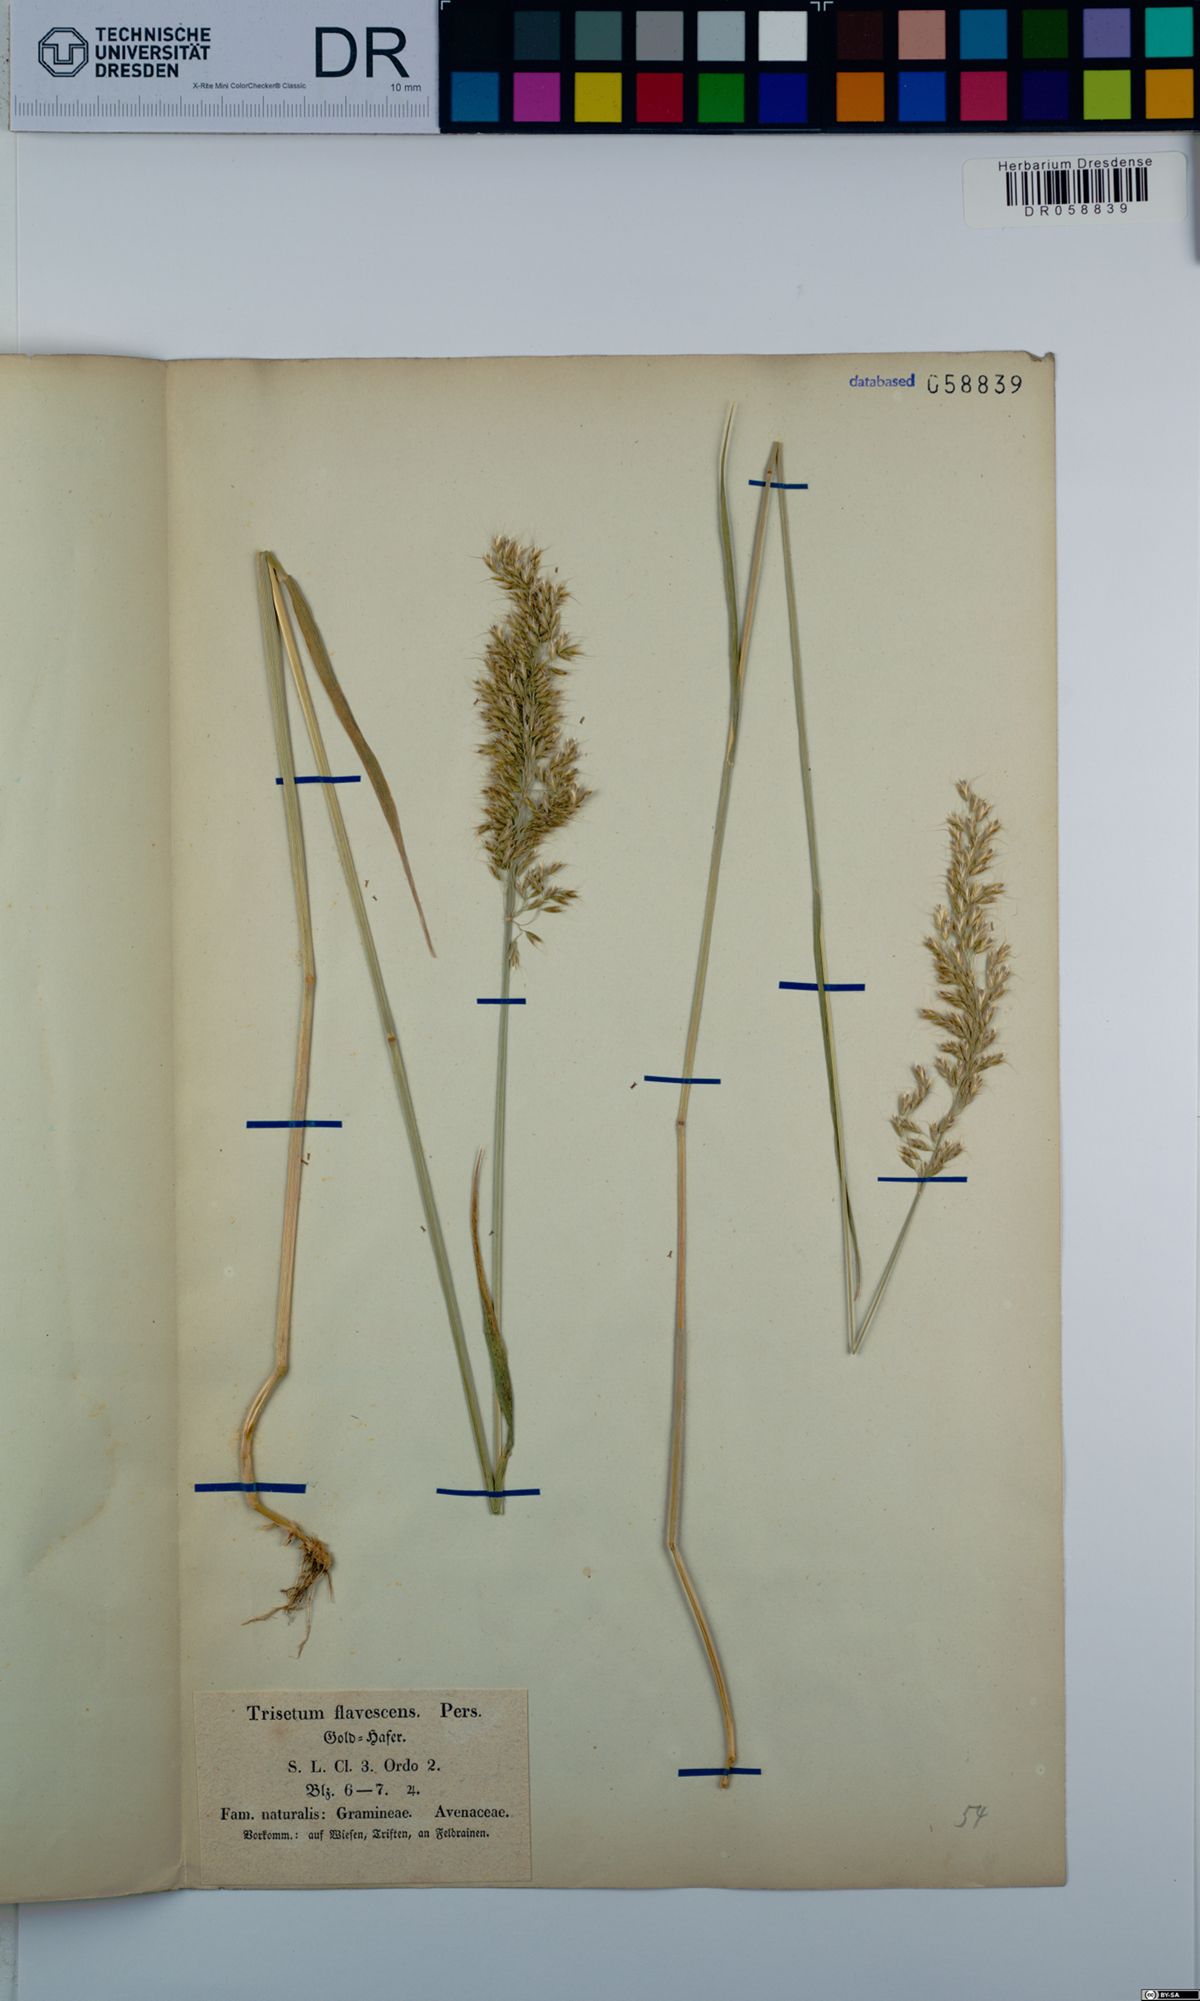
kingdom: Plantae
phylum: Tracheophyta
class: Liliopsida
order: Poales
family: Poaceae
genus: Trisetum
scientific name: Trisetum flavescens
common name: Yellow oat-grass
